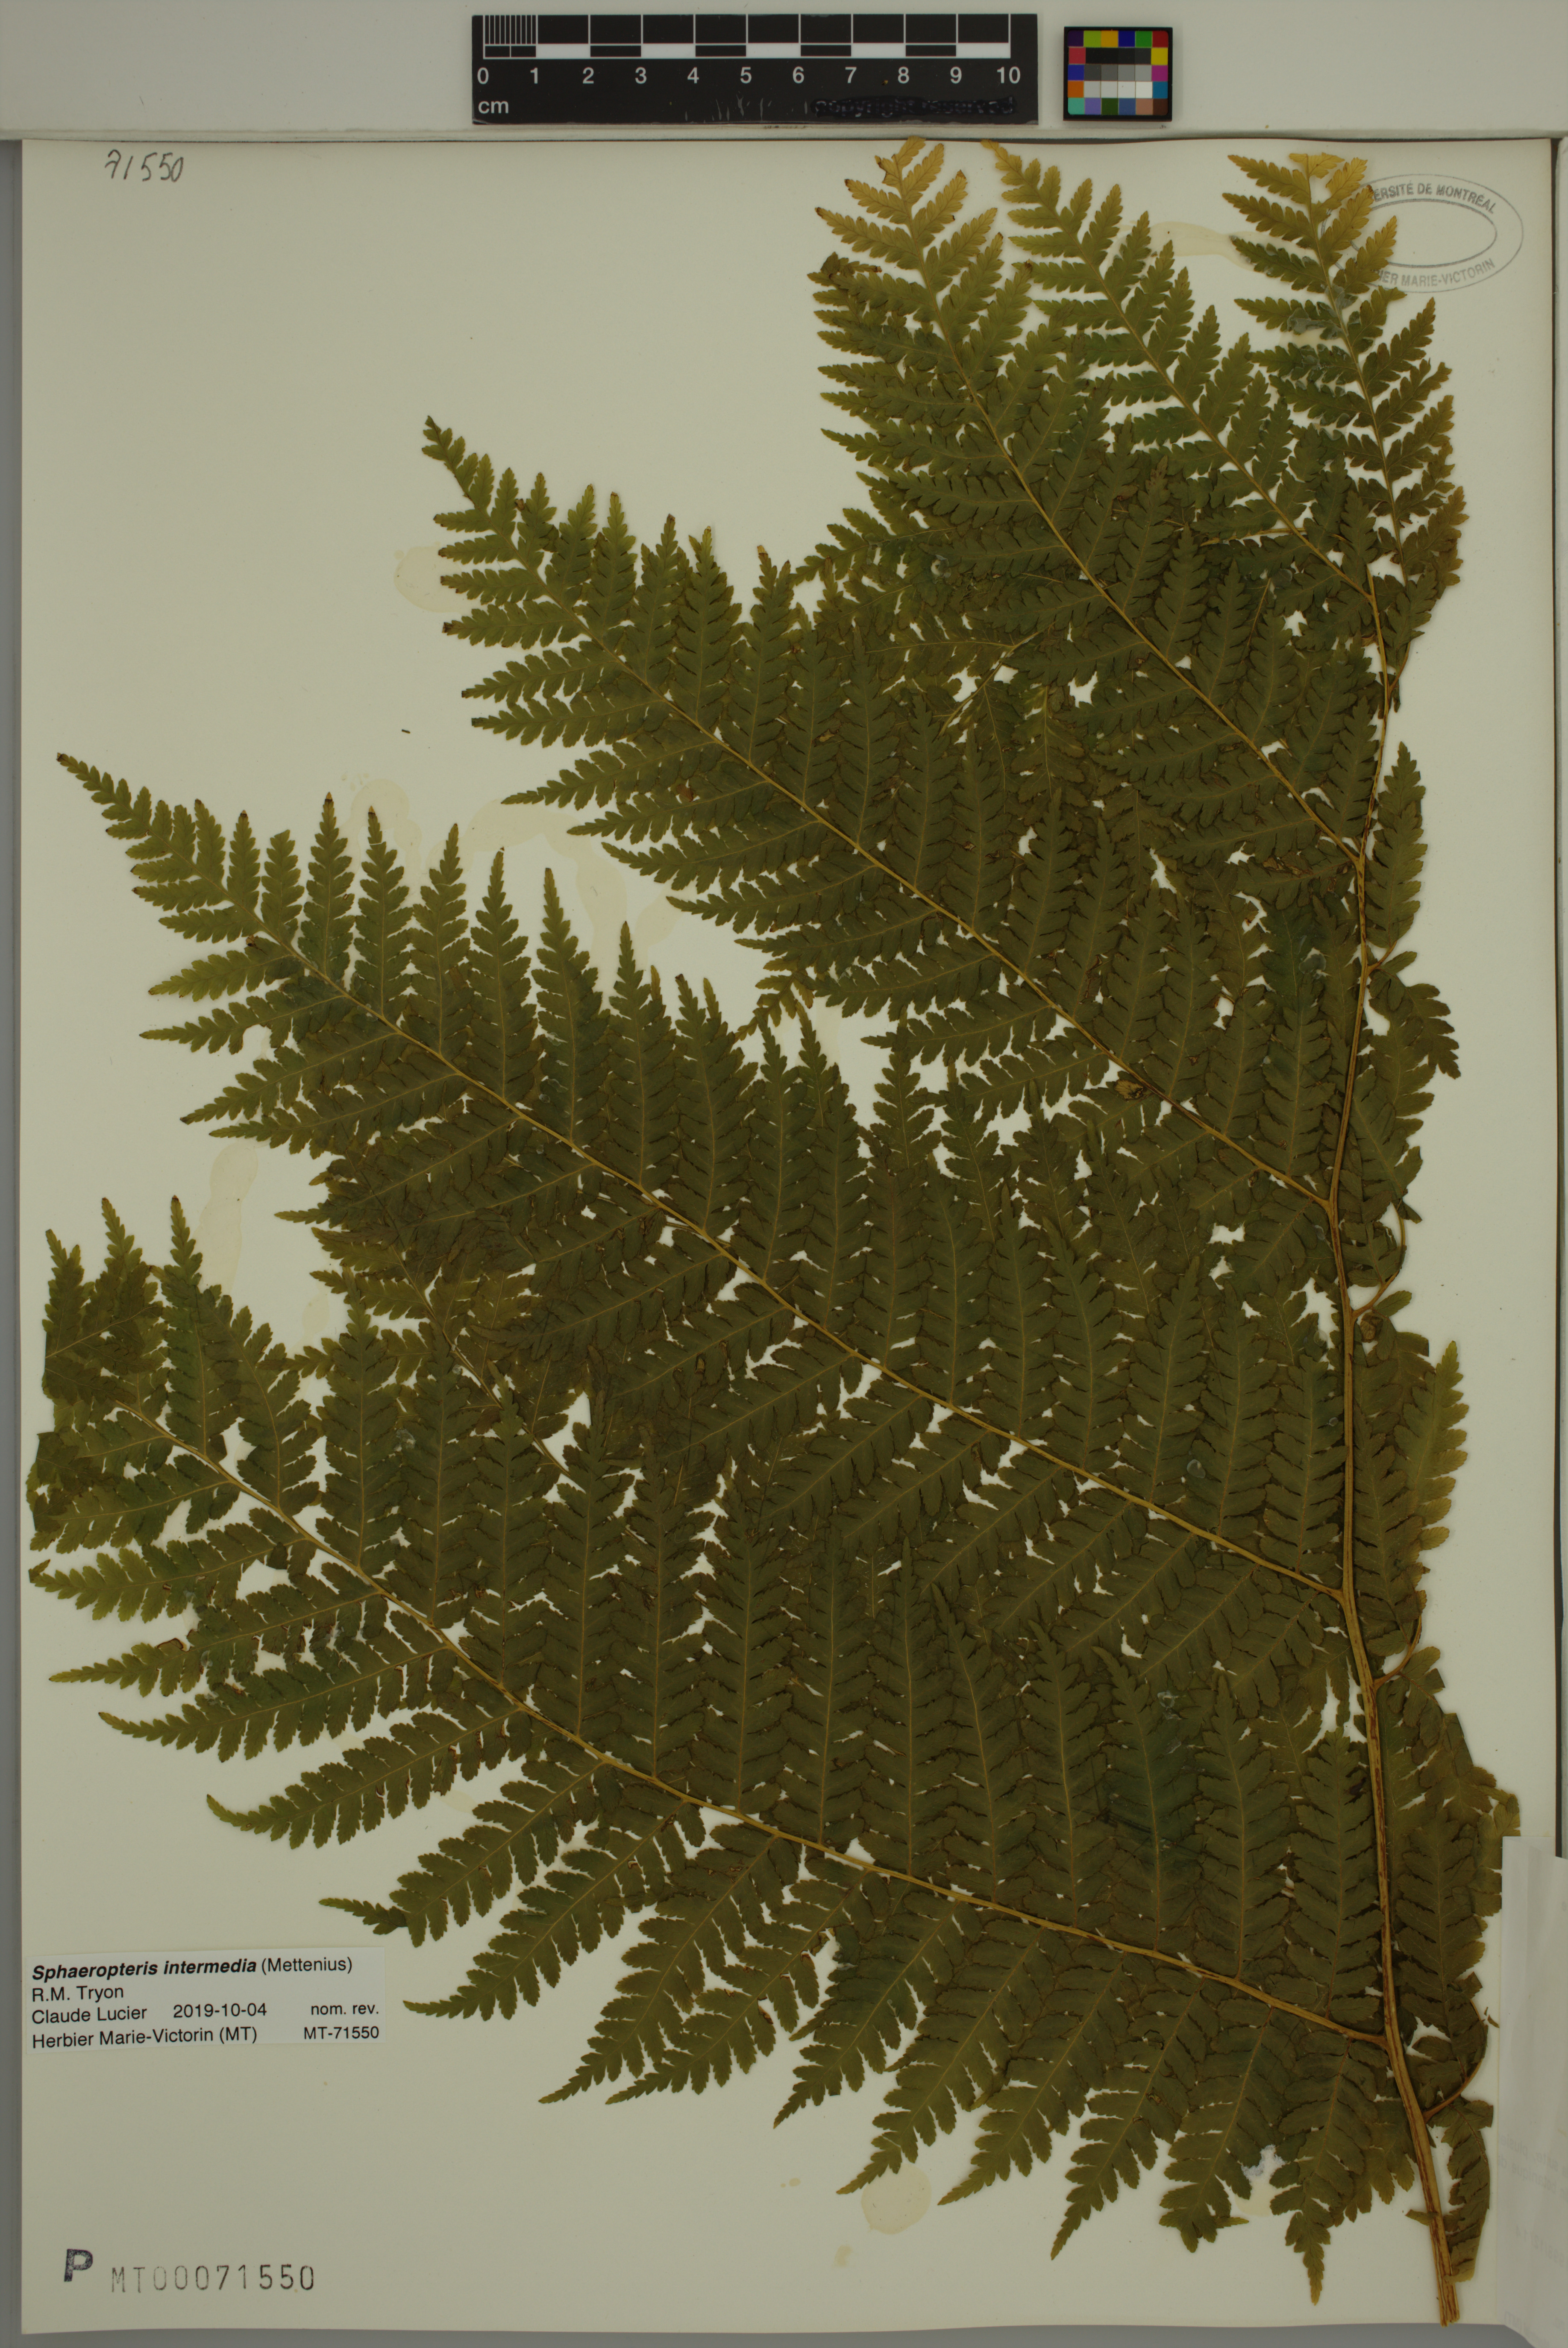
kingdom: Plantae
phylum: Tracheophyta
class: Polypodiopsida
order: Cyatheales
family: Cyatheaceae
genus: Sphaeropteris
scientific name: Sphaeropteris intermedia
